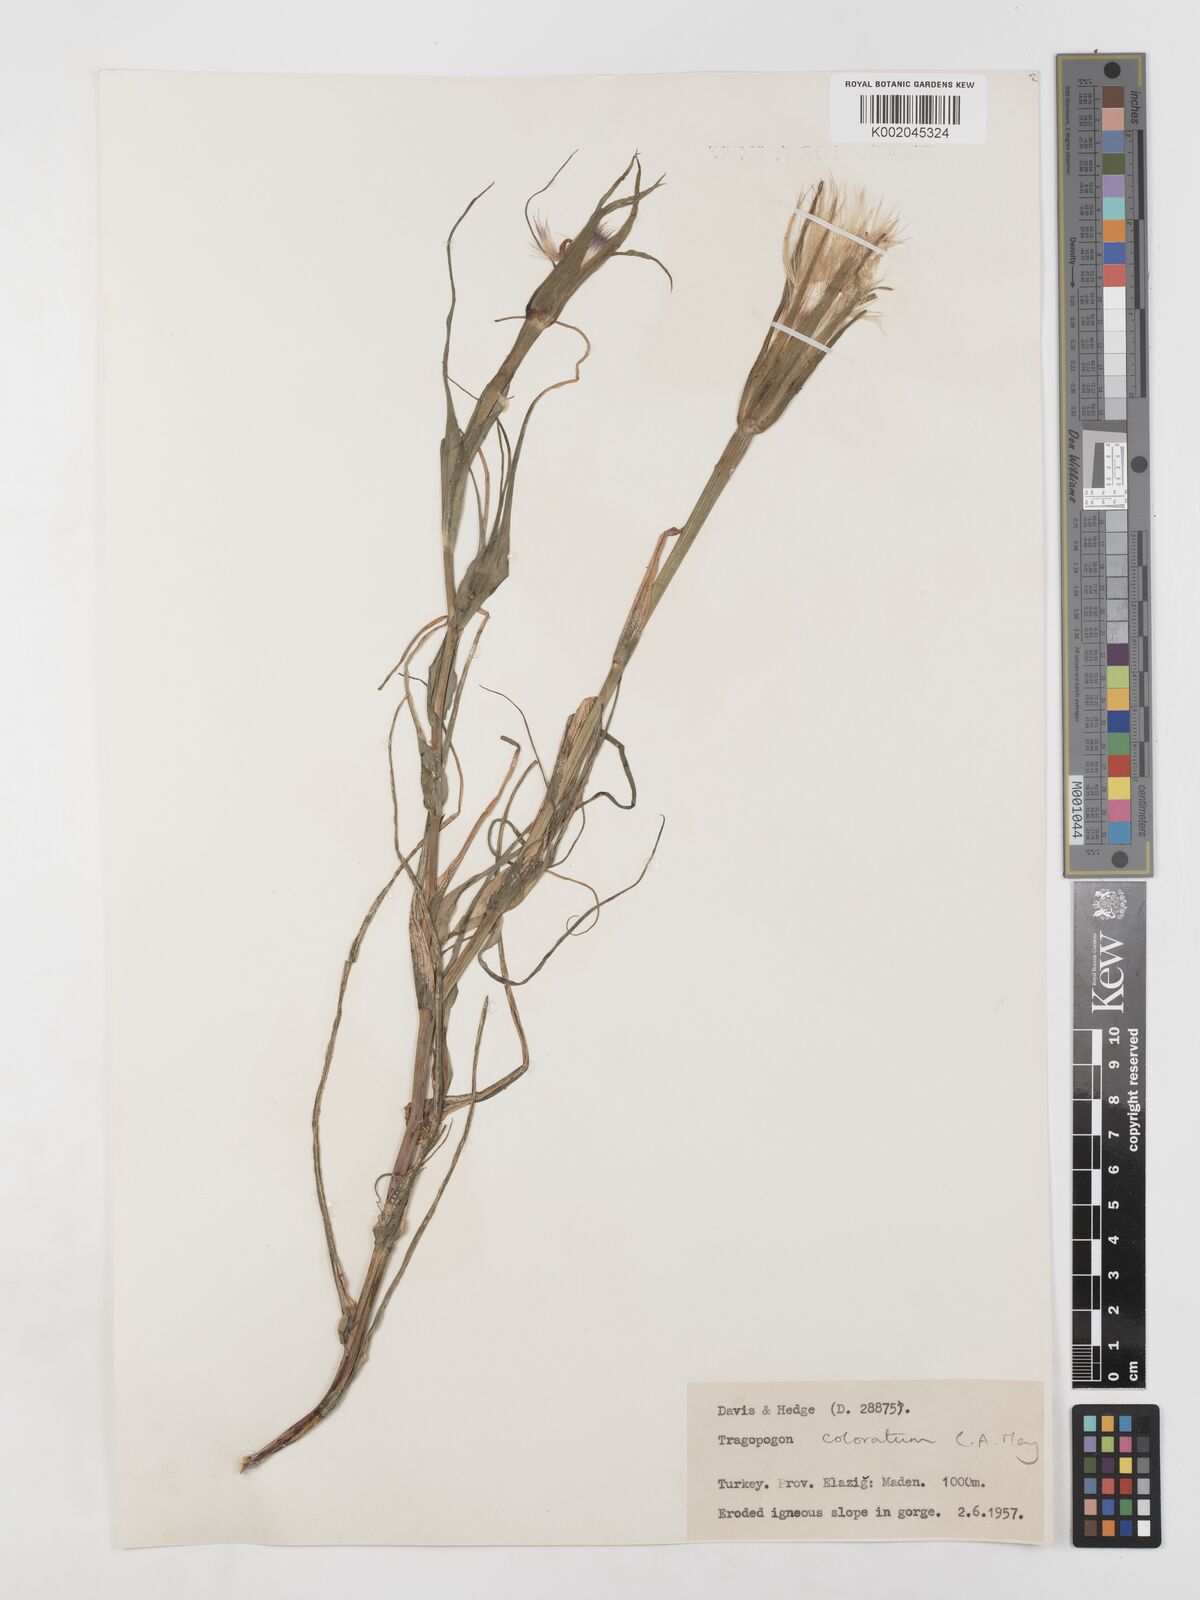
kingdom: Plantae
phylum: Tracheophyta
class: Magnoliopsida
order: Asterales
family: Asteraceae
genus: Tragopogon
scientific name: Tragopogon coloratus
